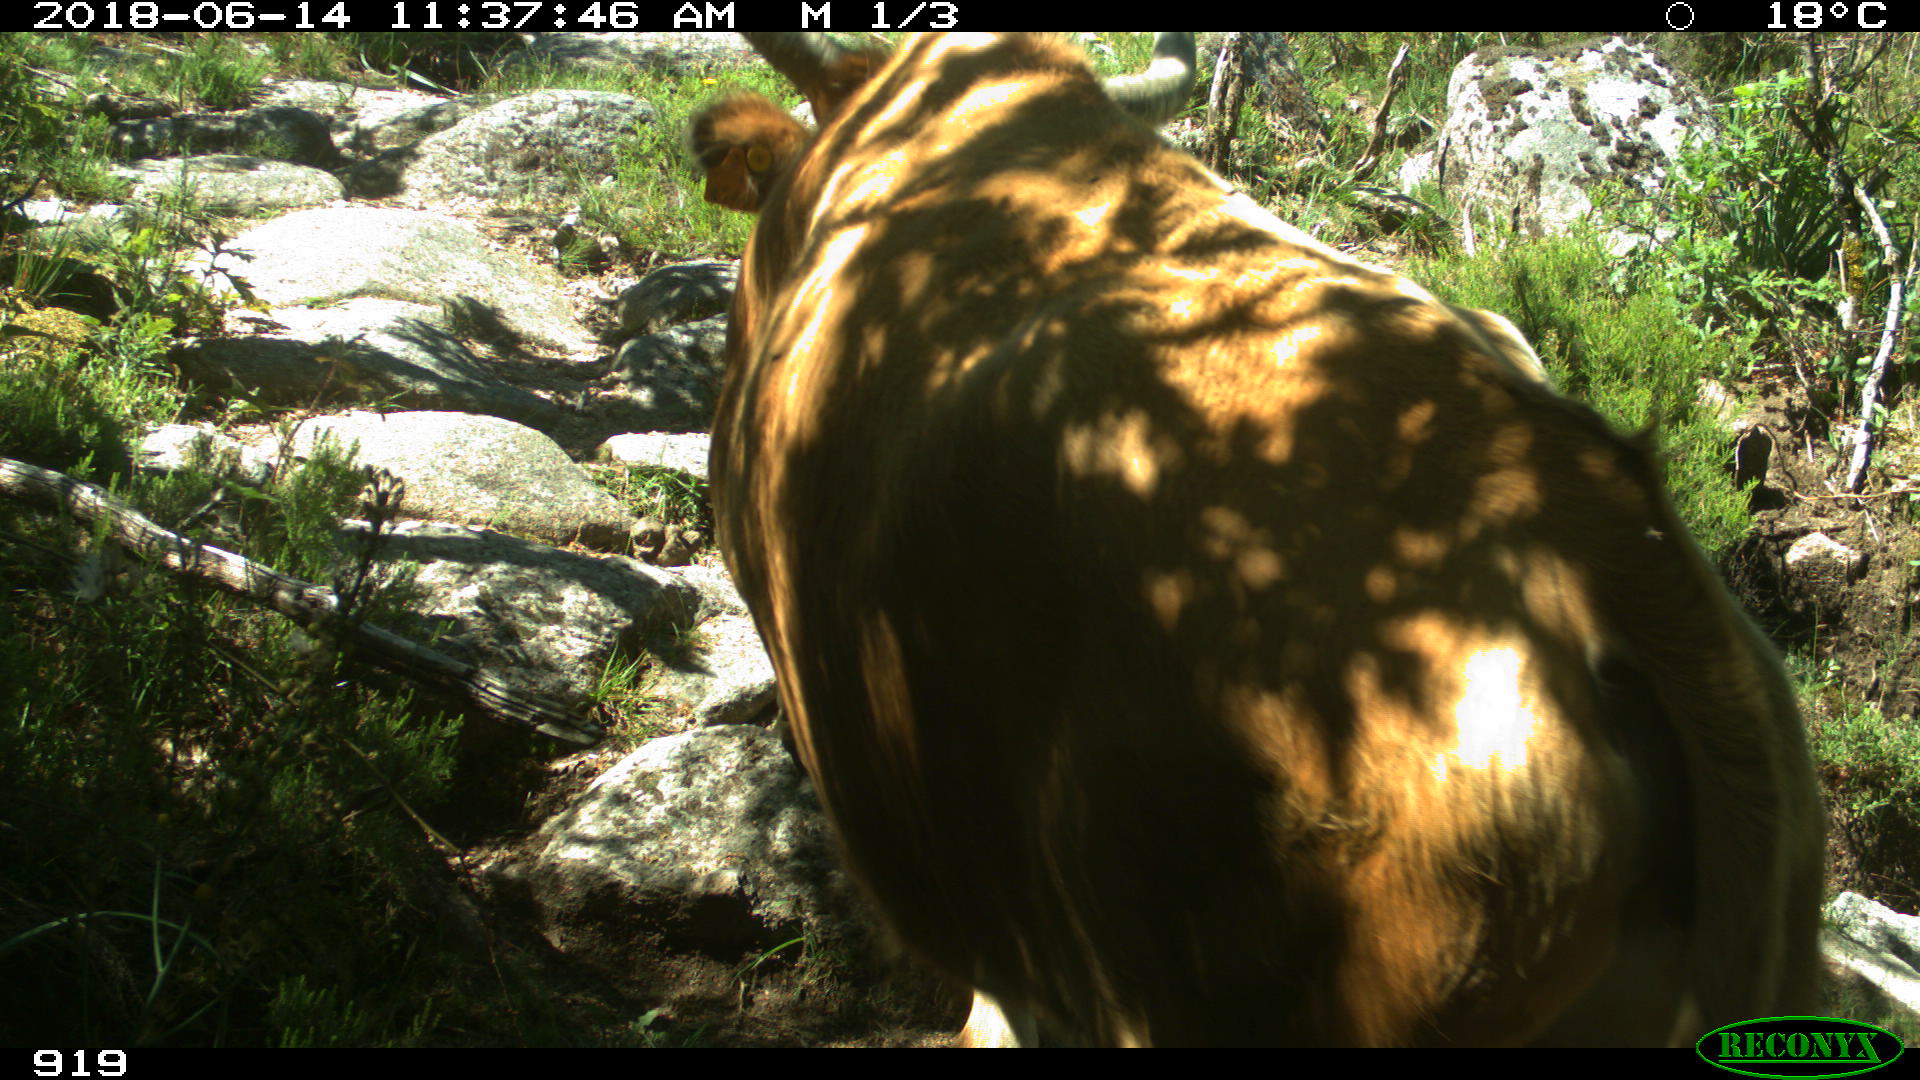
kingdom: Animalia
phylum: Chordata
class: Mammalia
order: Artiodactyla
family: Bovidae
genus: Bos
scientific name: Bos taurus
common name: Domesticated cattle
